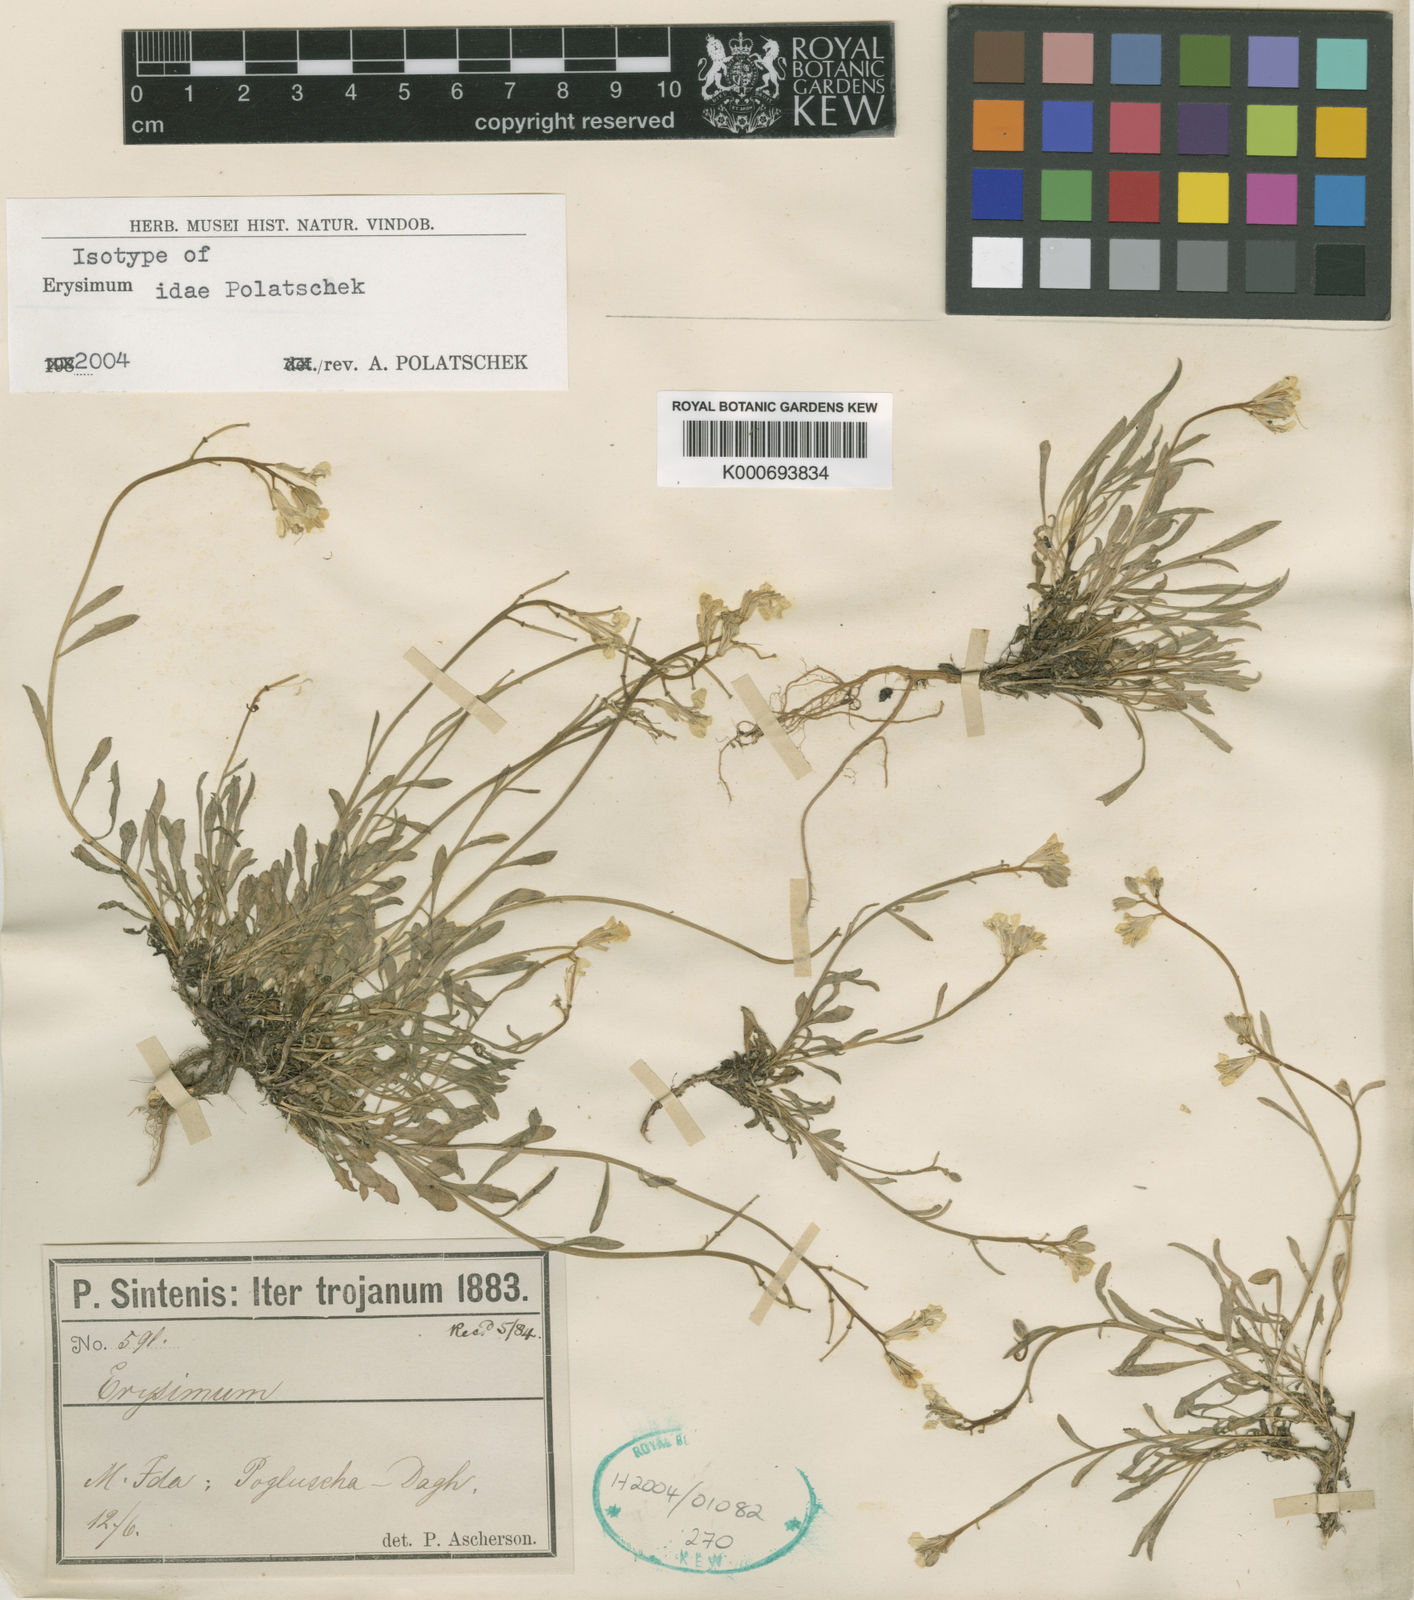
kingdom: Plantae
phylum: Tracheophyta
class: Magnoliopsida
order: Brassicales
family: Brassicaceae
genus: Erysimum
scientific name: Erysimum idae
